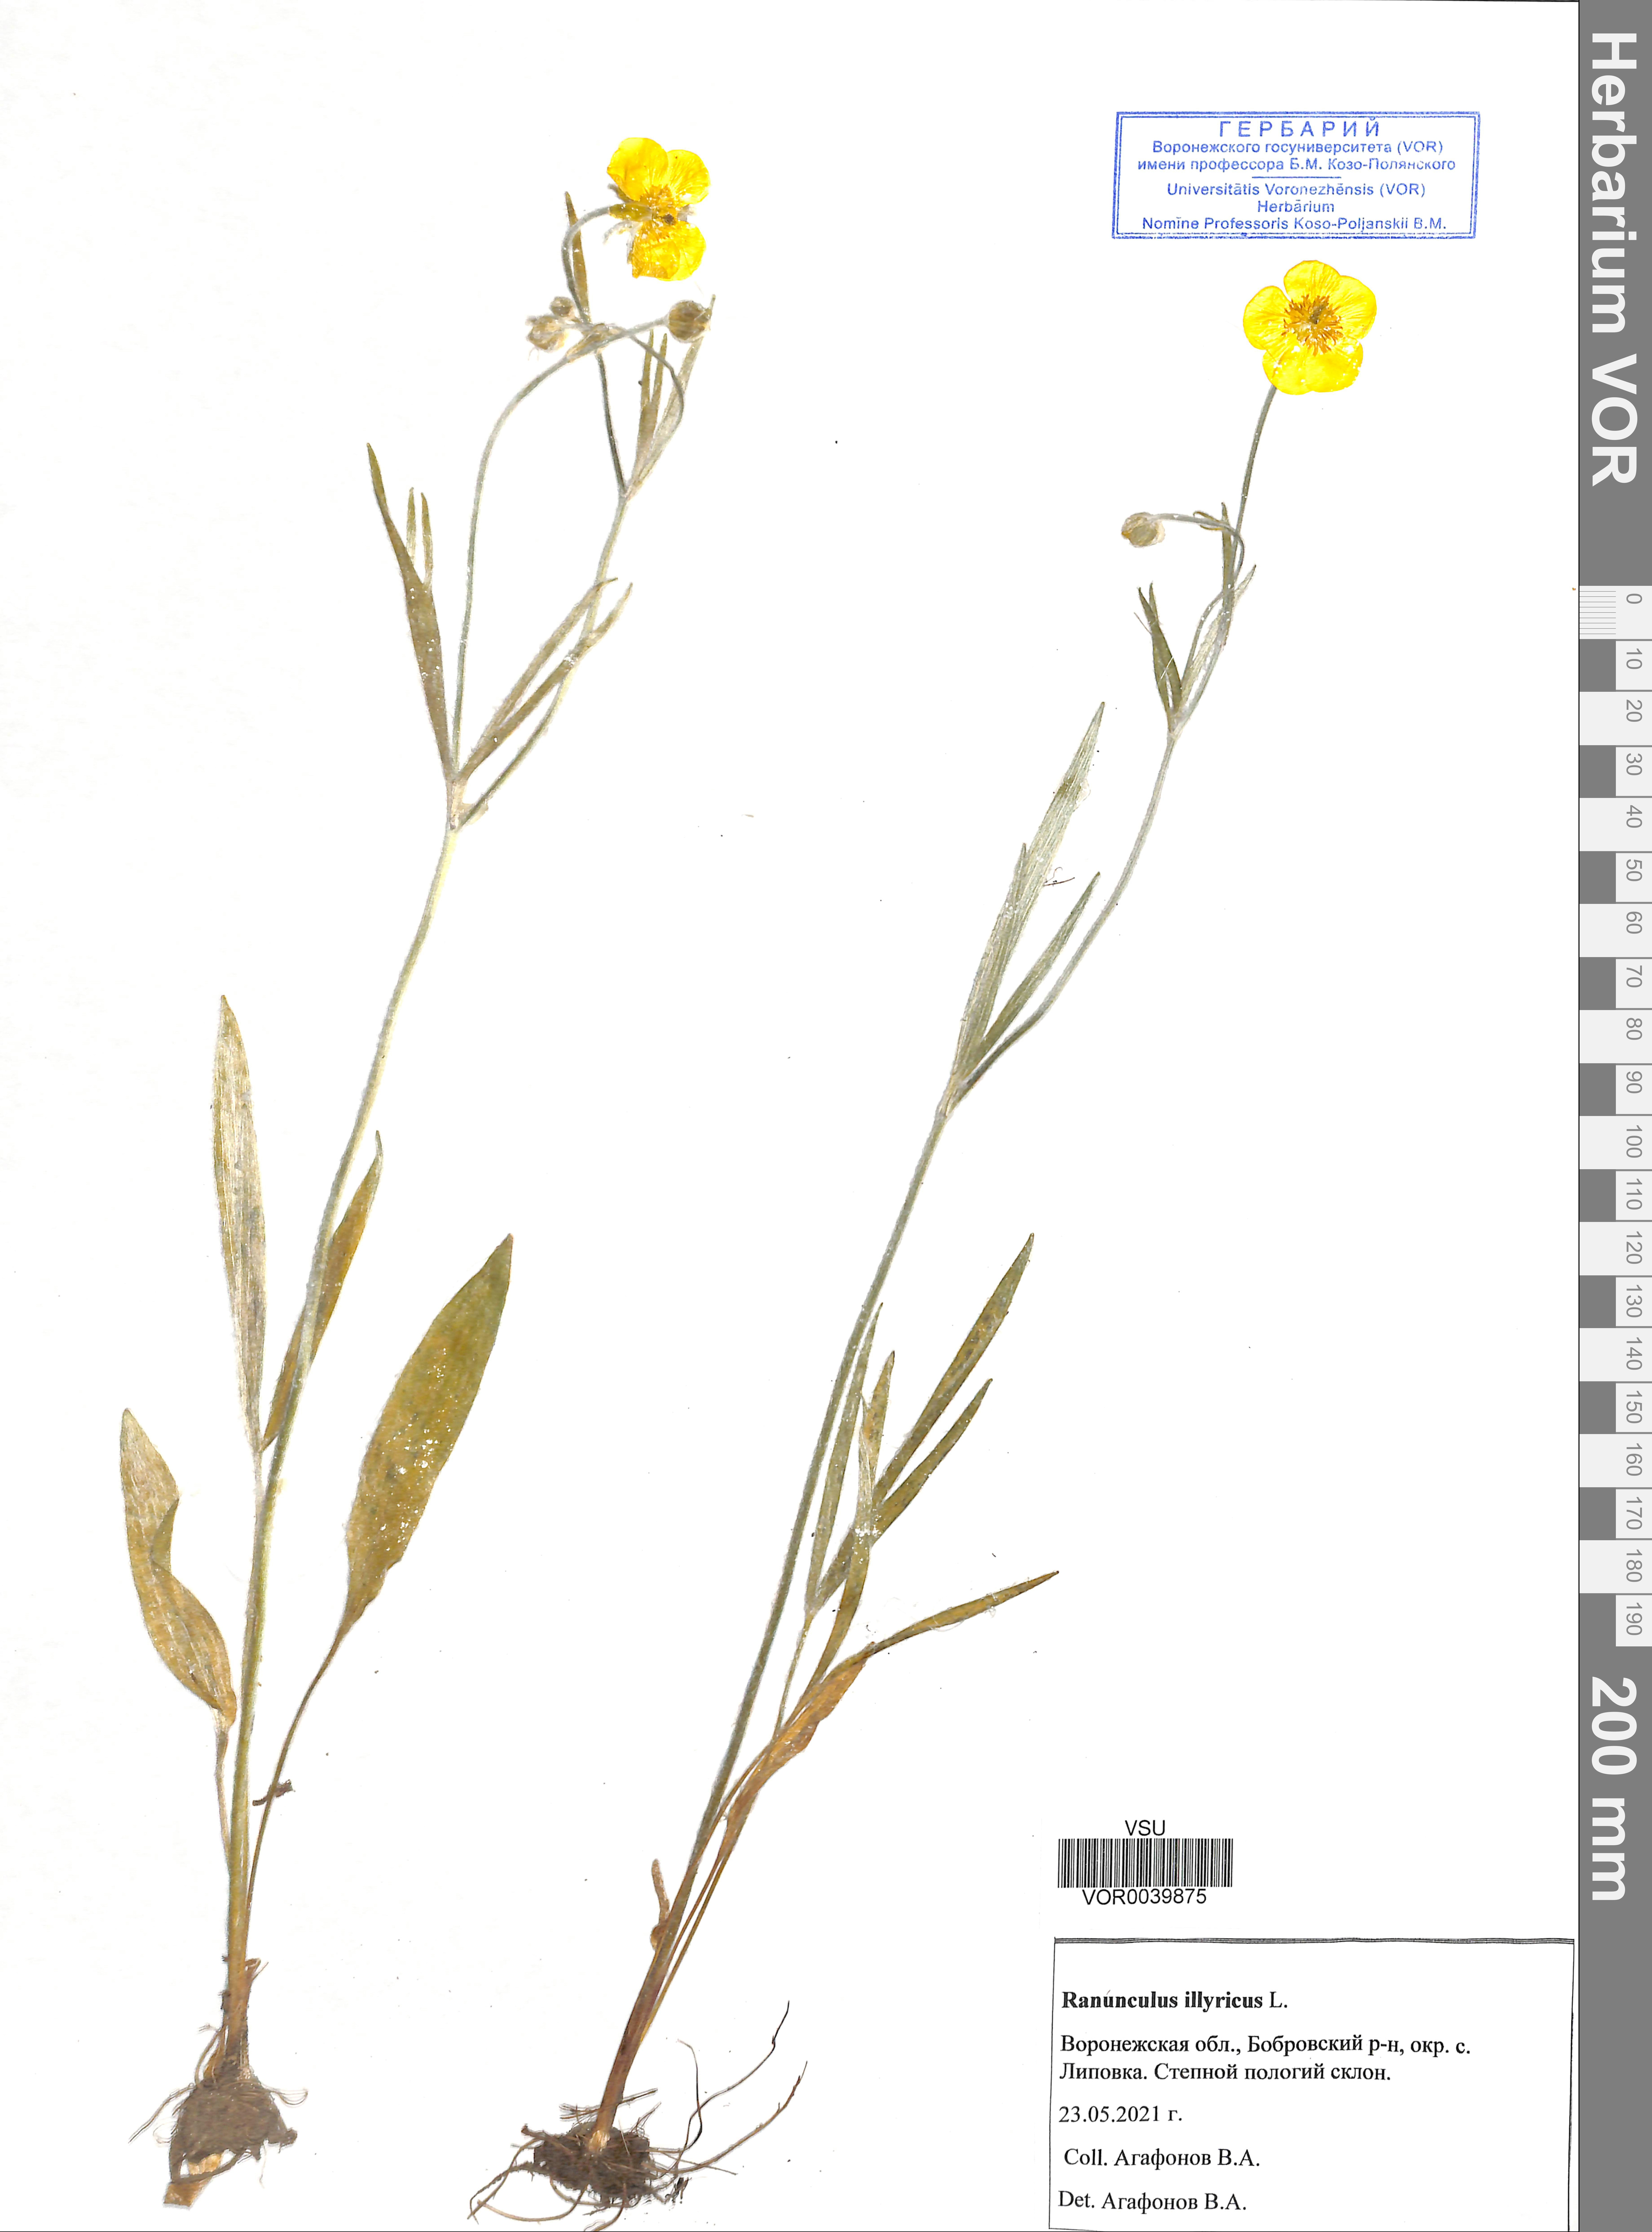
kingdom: Plantae
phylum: Tracheophyta
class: Magnoliopsida
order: Ranunculales
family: Ranunculaceae
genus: Ranunculus
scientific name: Ranunculus illyricus
